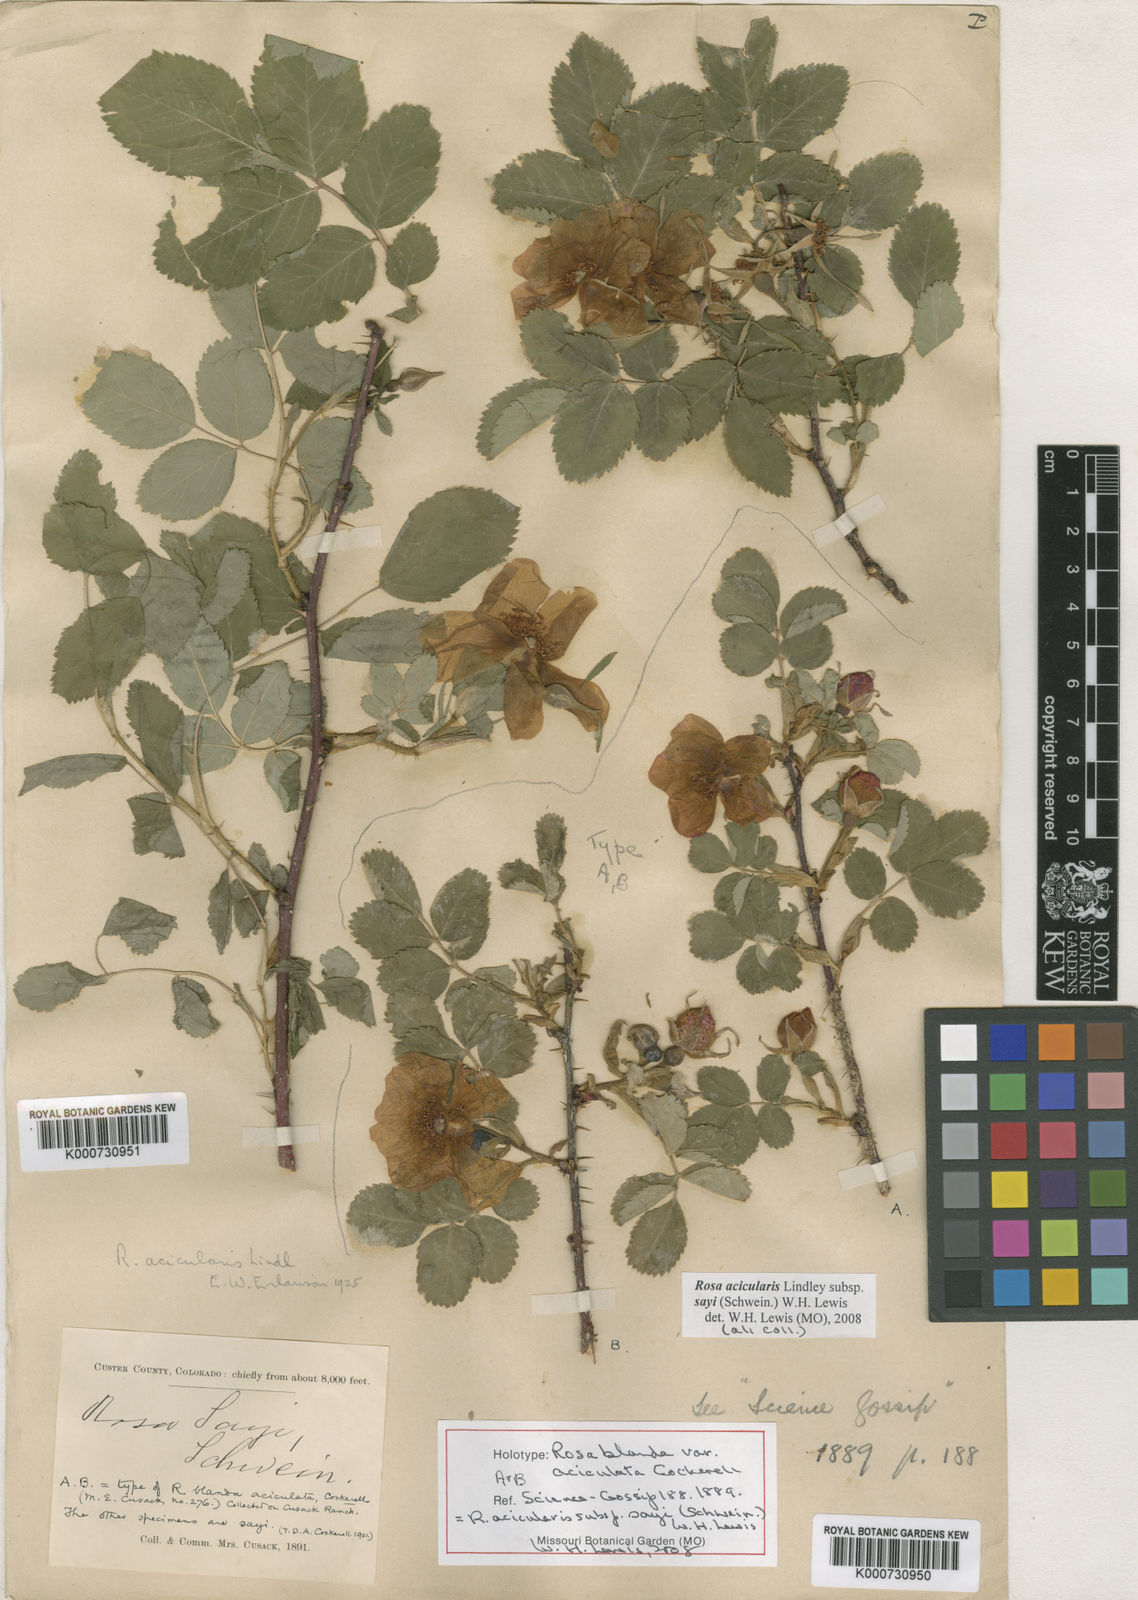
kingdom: Plantae
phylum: Tracheophyta
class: Magnoliopsida
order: Rosales
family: Rosaceae
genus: Rosa
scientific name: Rosa acicularis
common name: Prickly rose
